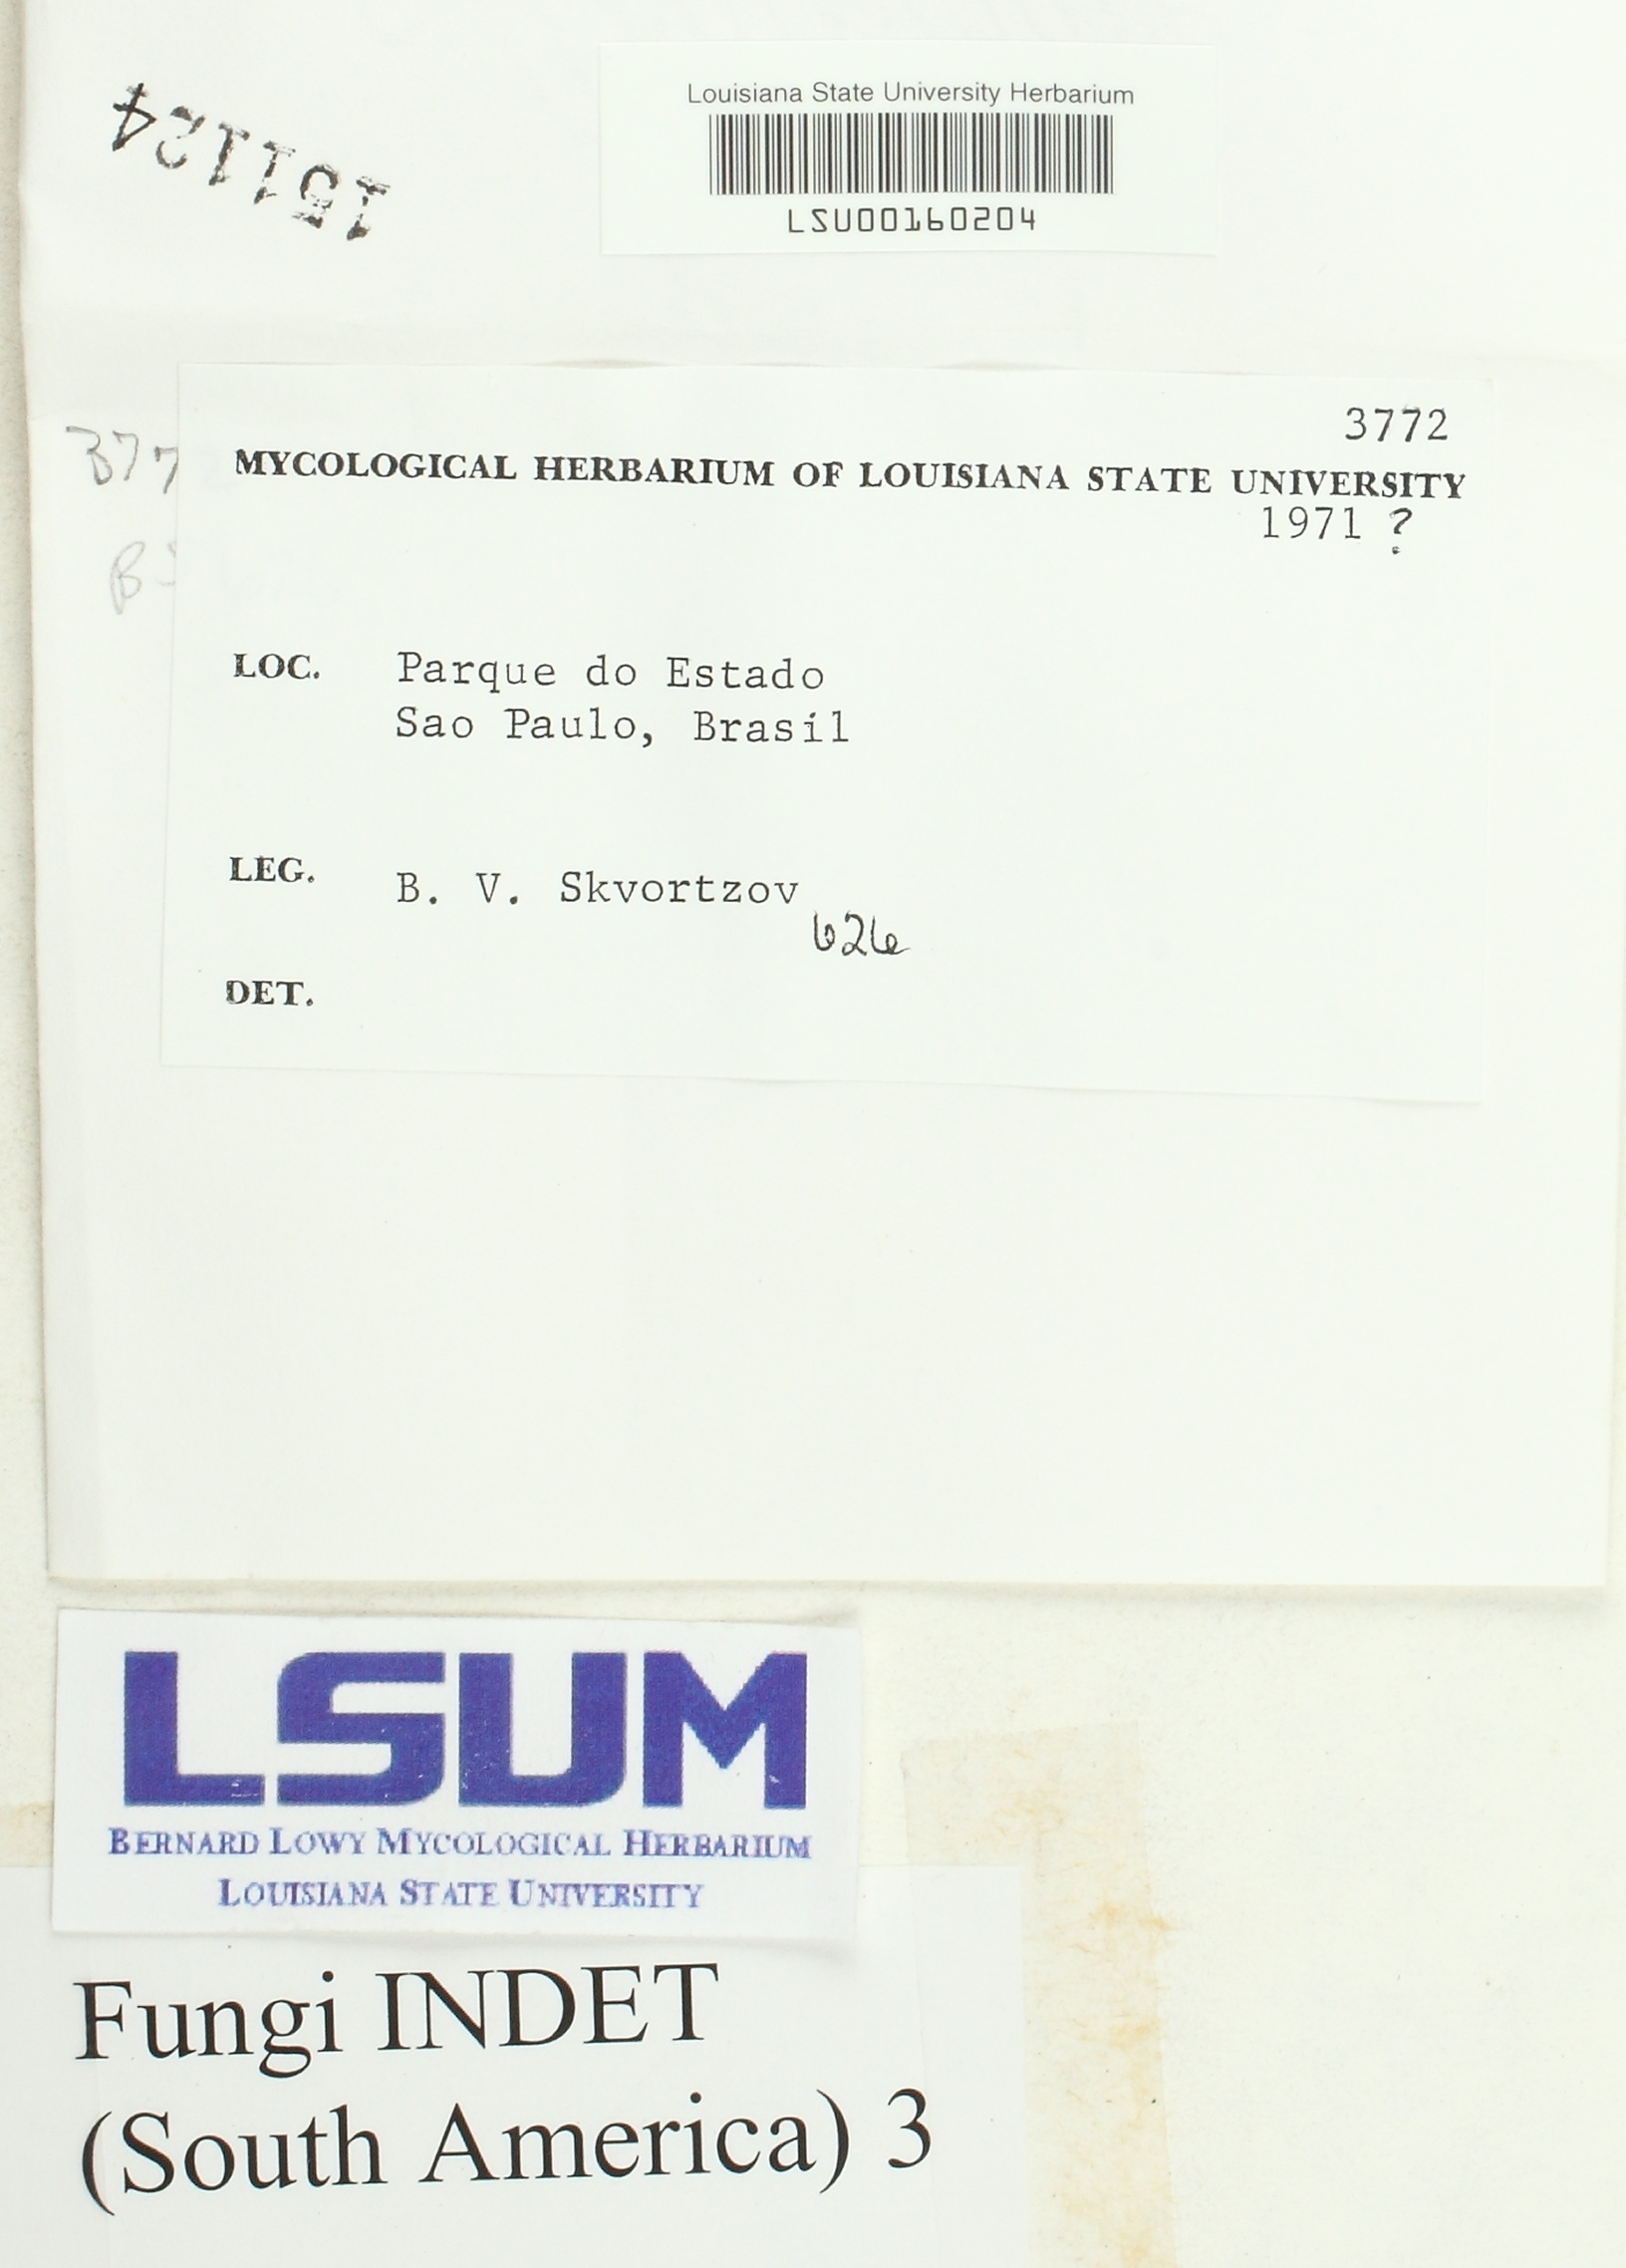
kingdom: Fungi
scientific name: Fungi
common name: Fungi
